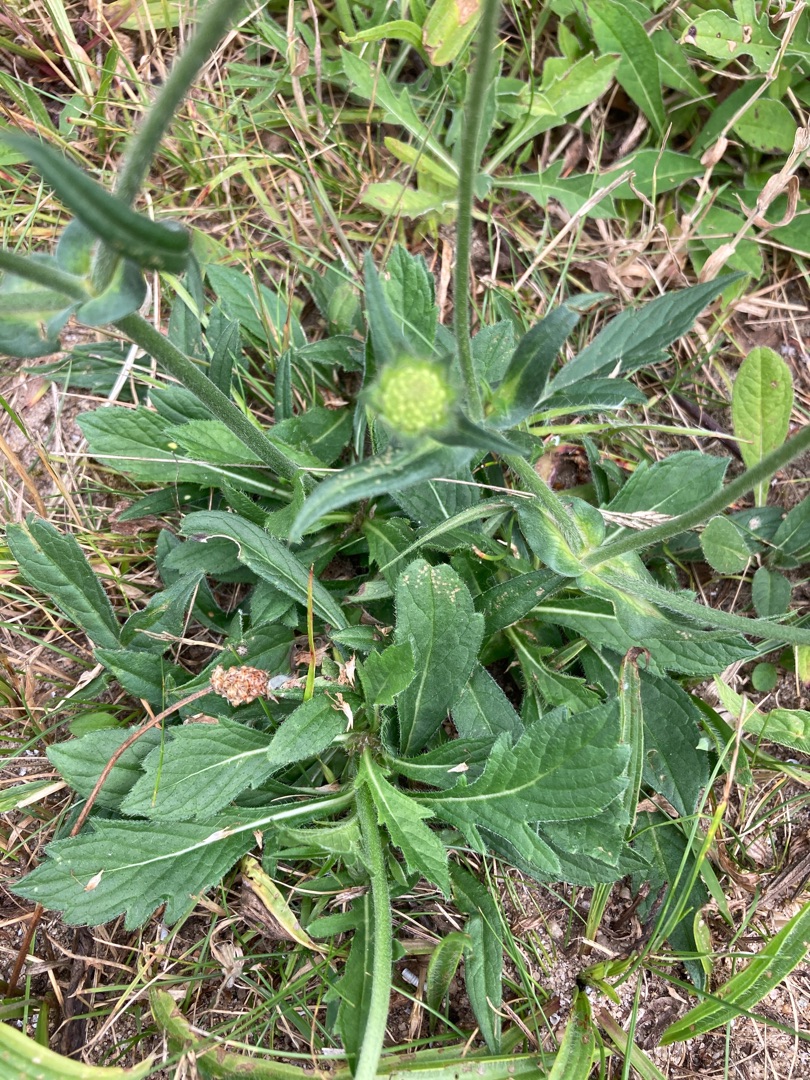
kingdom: Plantae
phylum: Tracheophyta
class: Magnoliopsida
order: Dipsacales
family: Caprifoliaceae
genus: Knautia
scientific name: Knautia arvensis
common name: Blåhat
